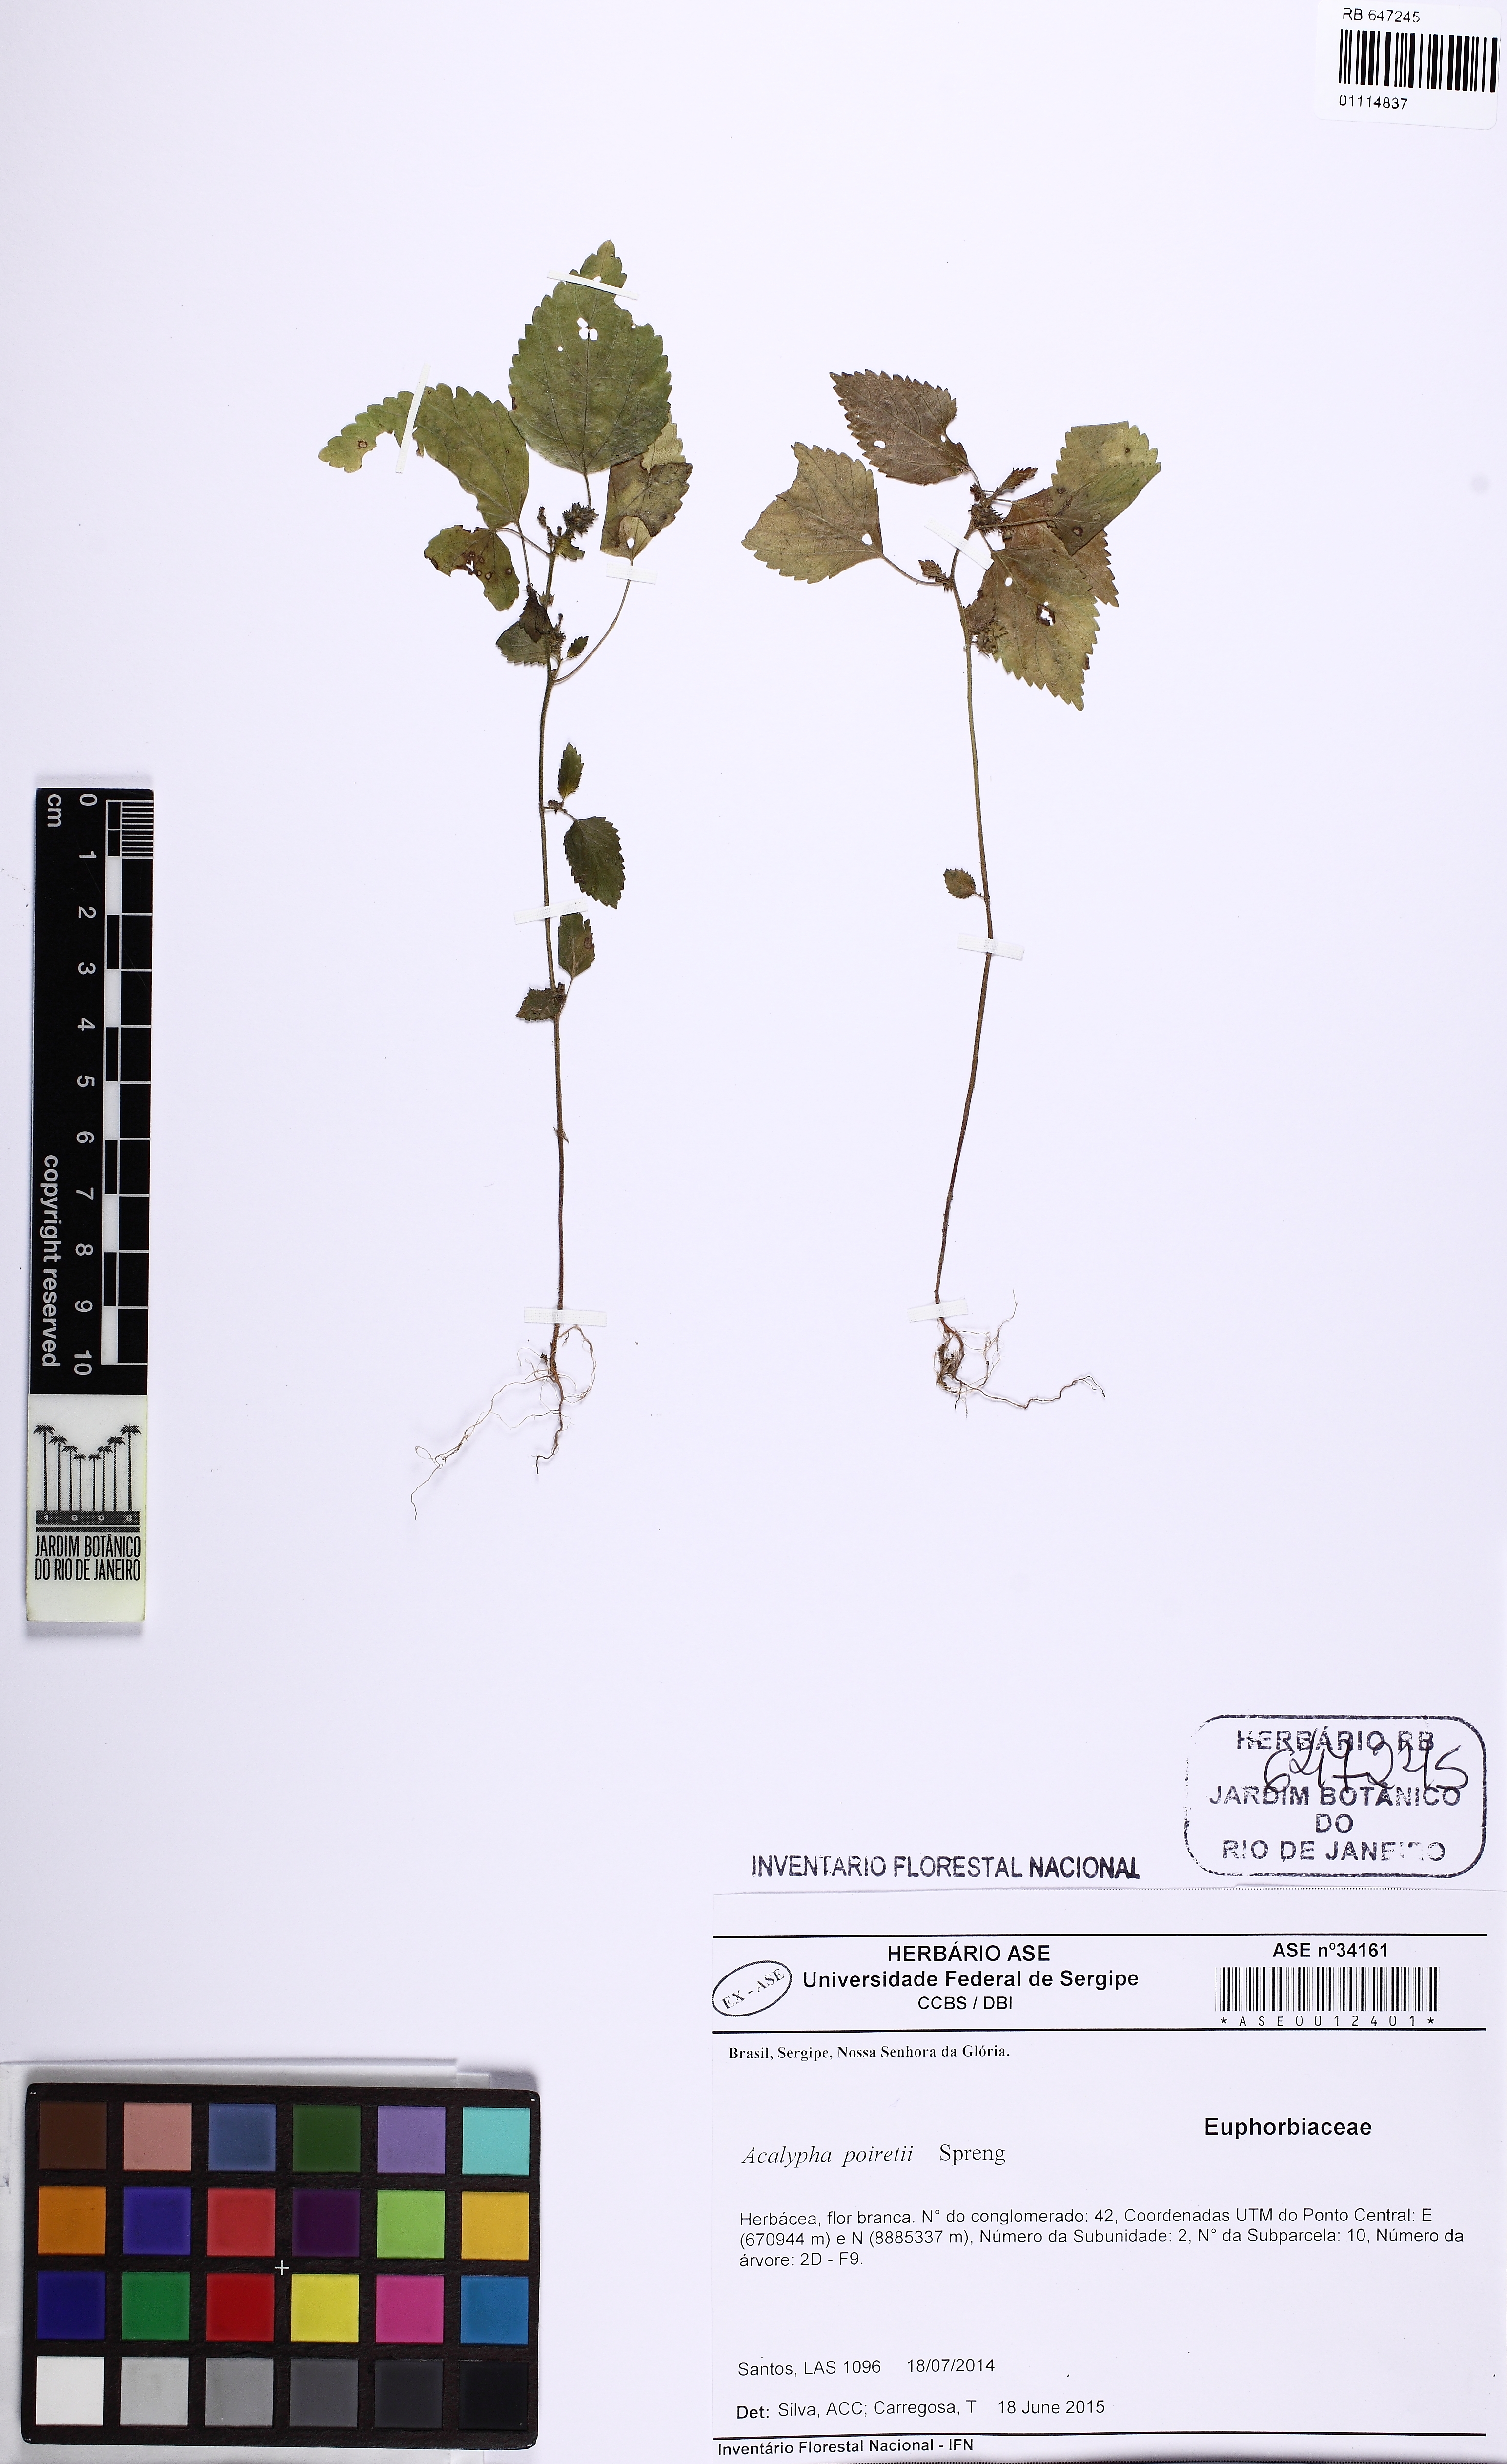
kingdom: Plantae
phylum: Tracheophyta
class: Magnoliopsida
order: Malpighiales
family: Euphorbiaceae
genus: Acalypha
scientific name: Acalypha poiretii
